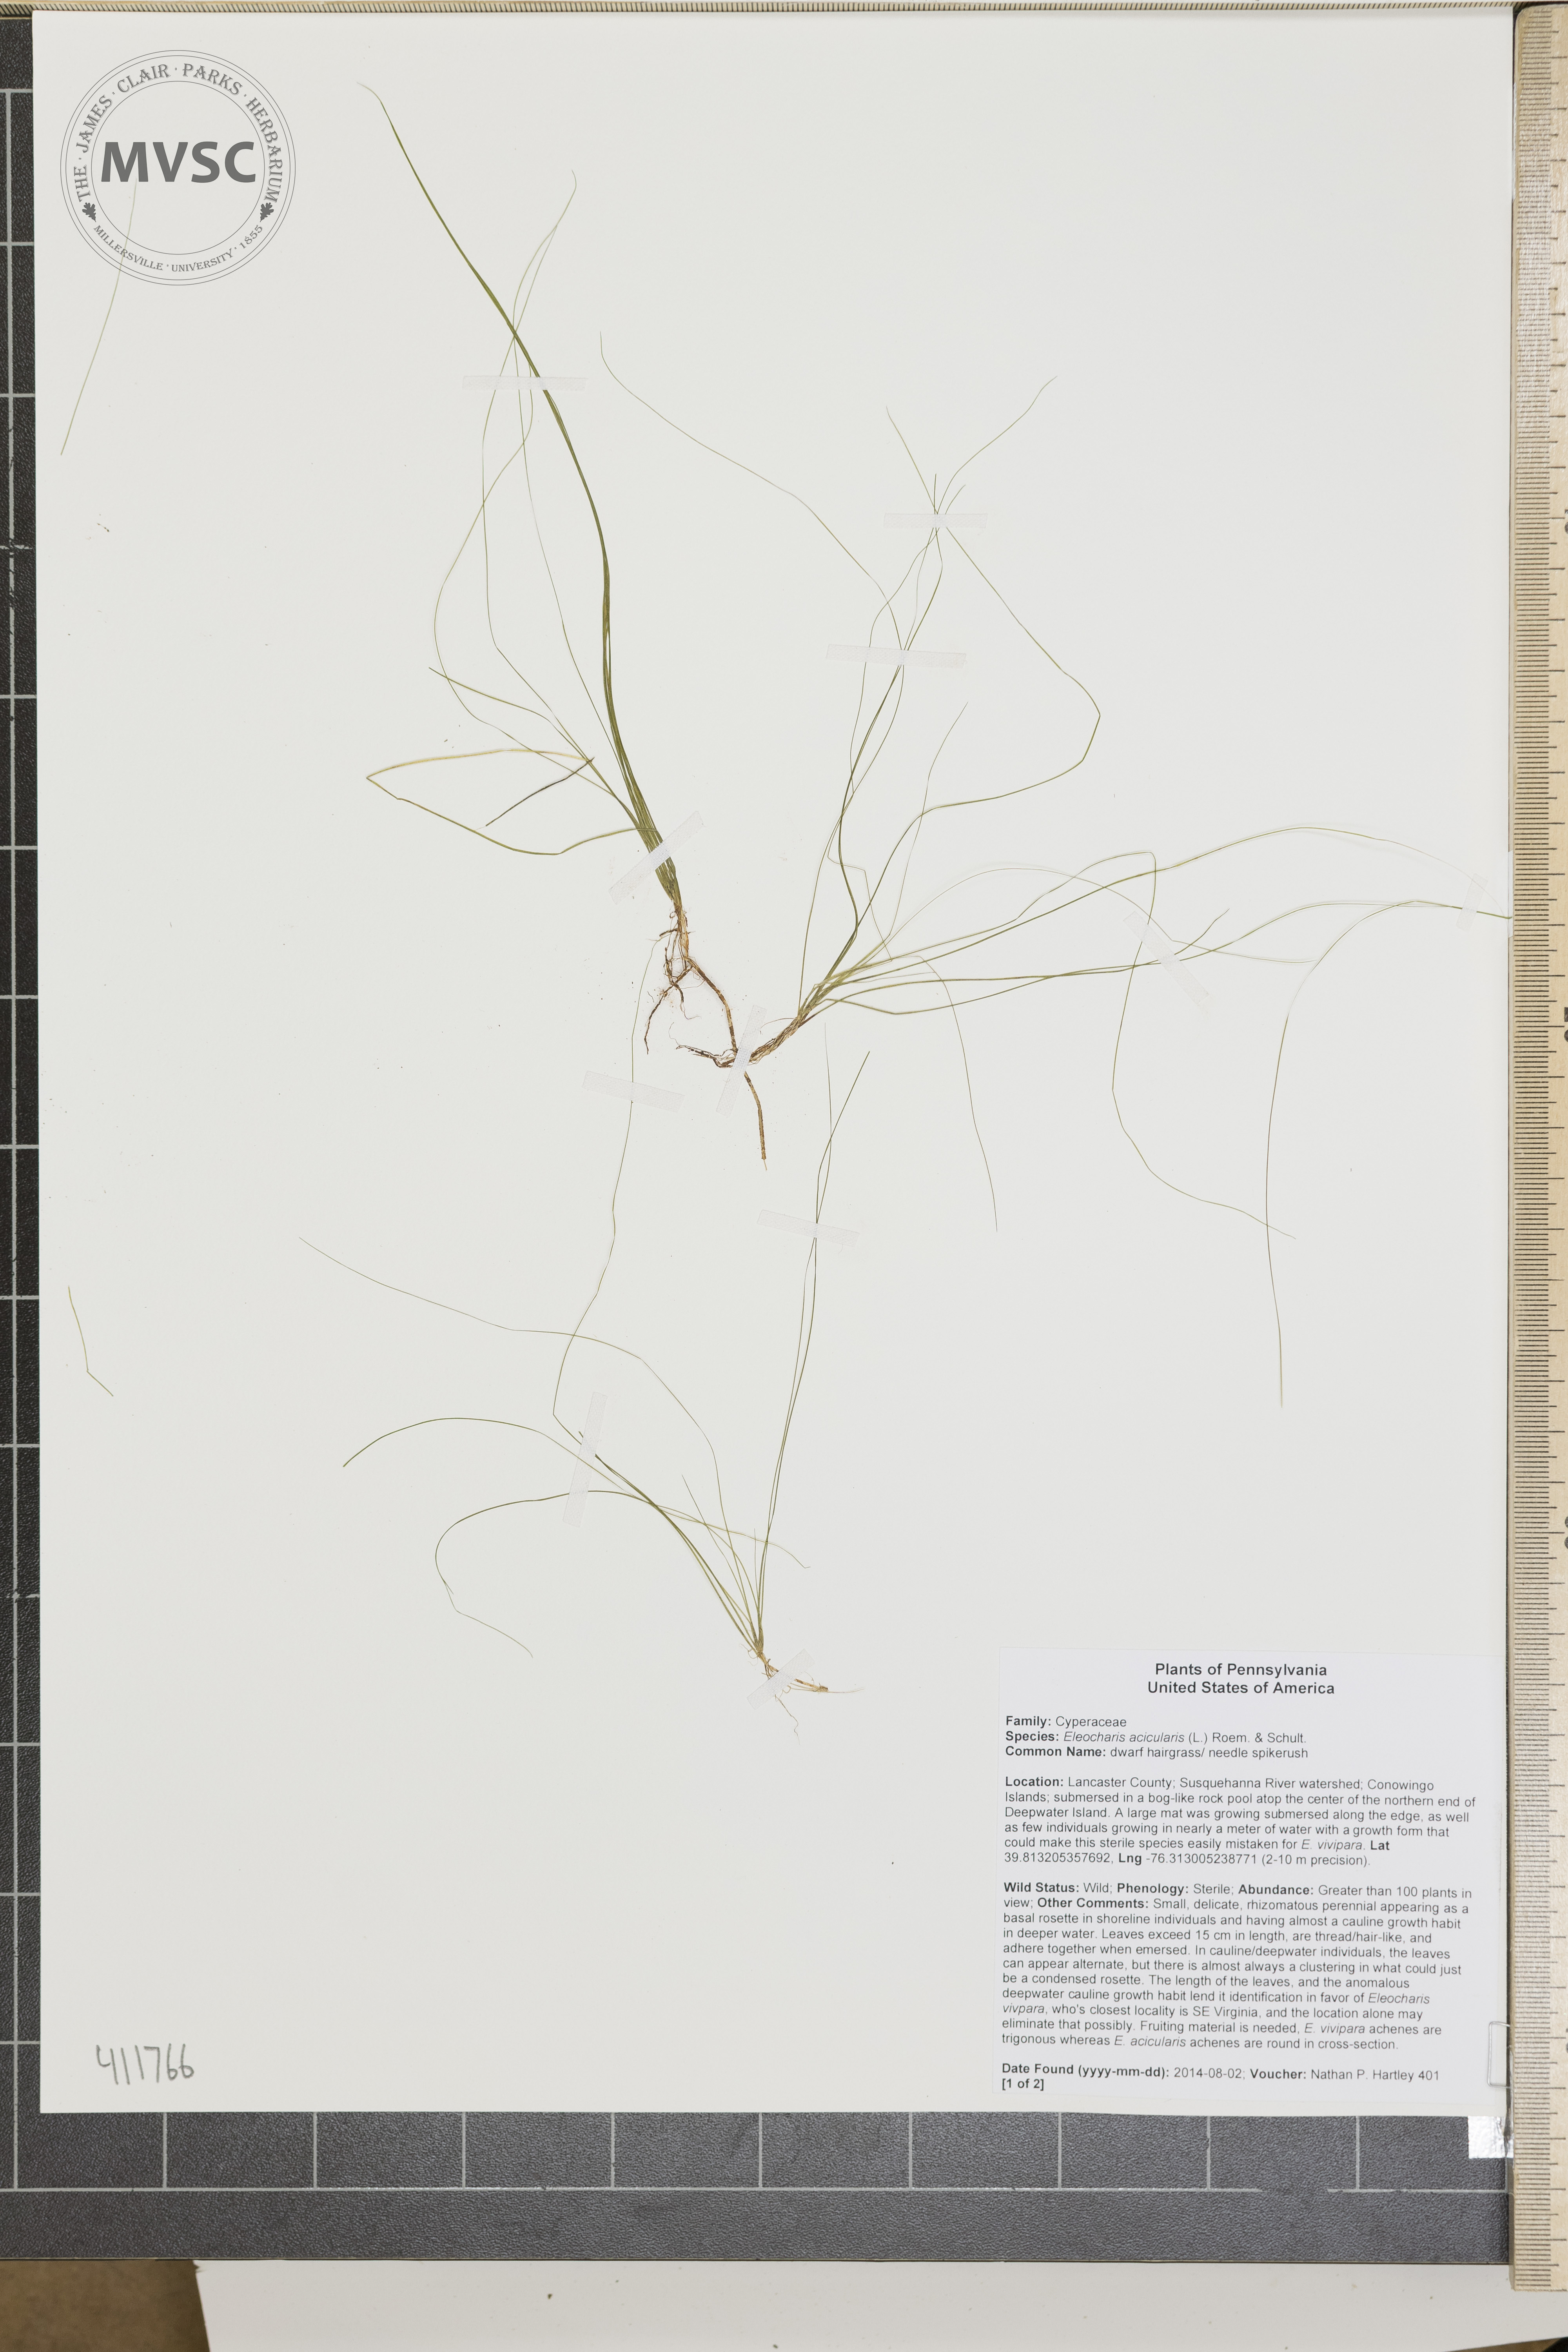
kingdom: Plantae
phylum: Tracheophyta
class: Liliopsida
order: Poales
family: Cyperaceae
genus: Eleocharis
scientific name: Eleocharis acicularis
